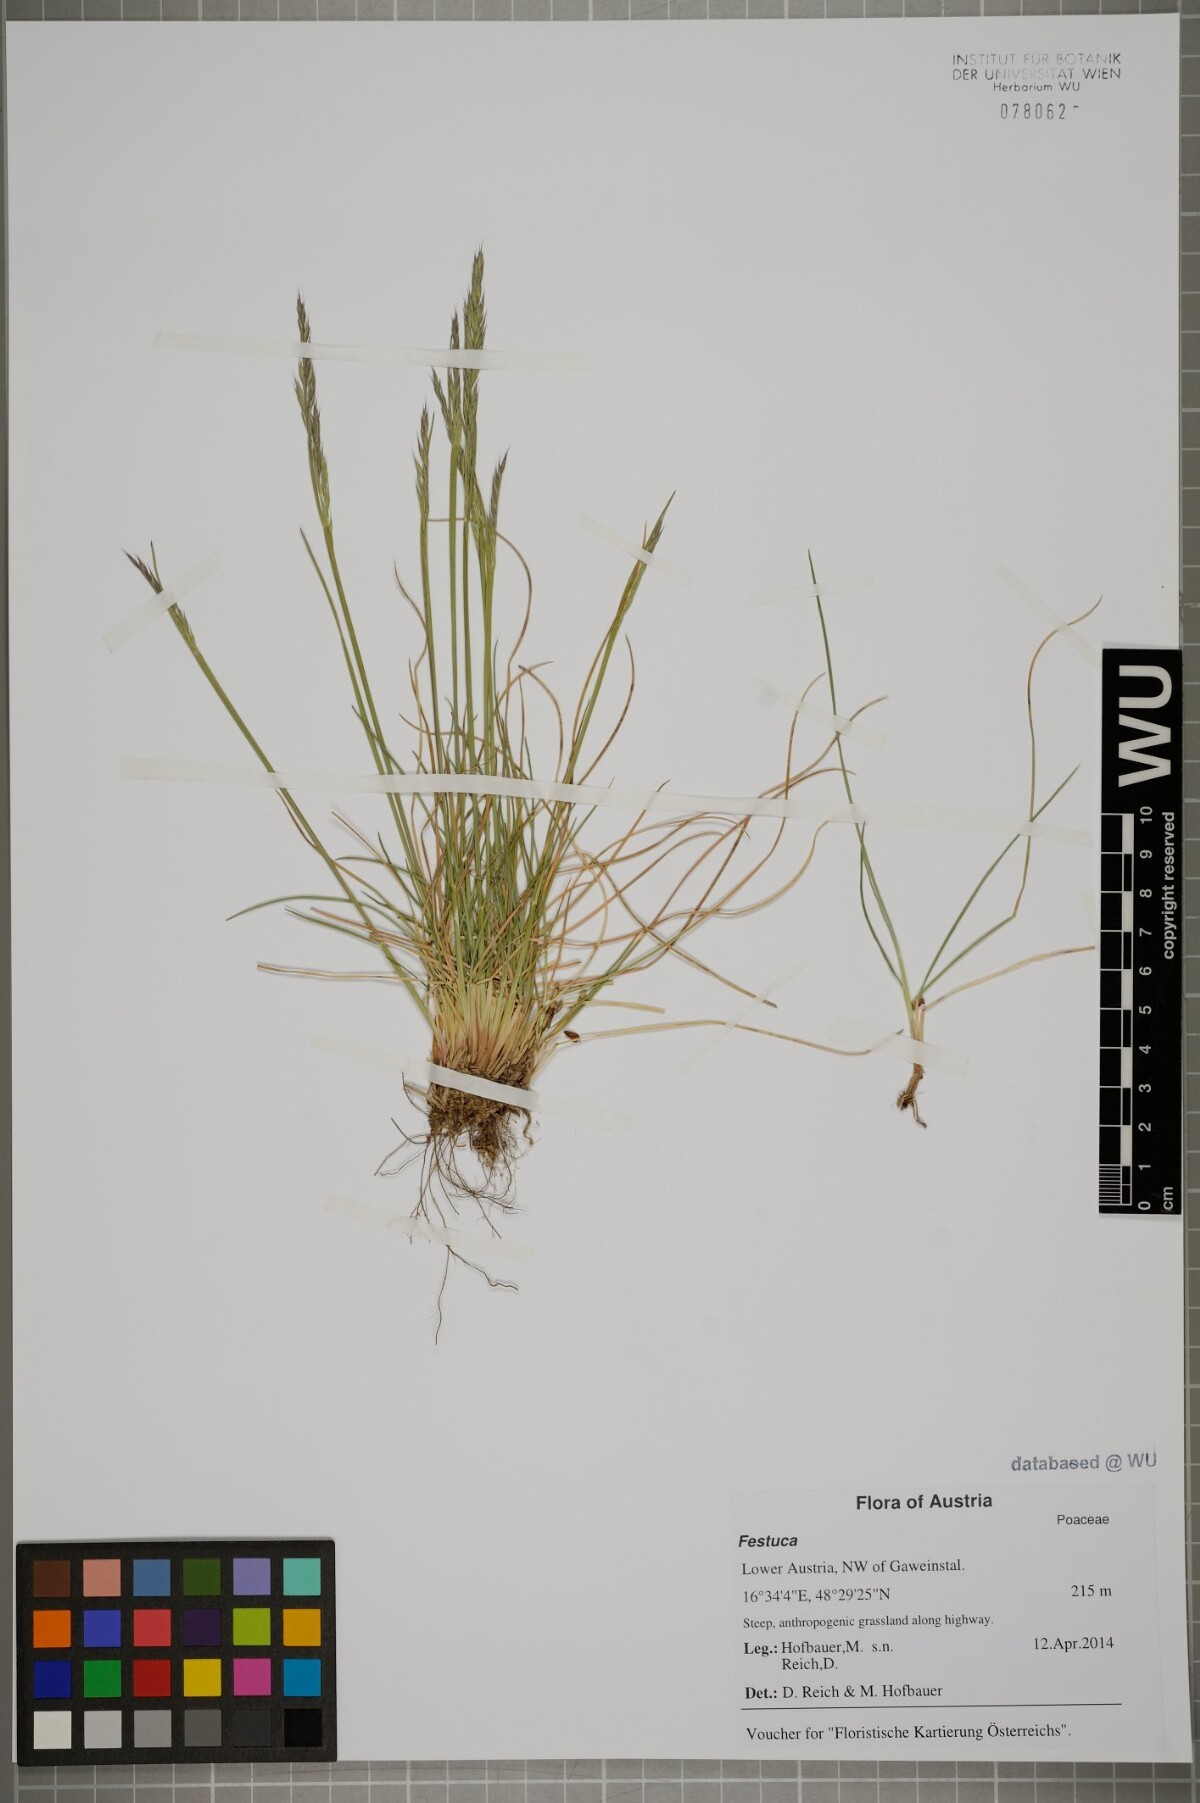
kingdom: Plantae
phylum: Tracheophyta
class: Liliopsida
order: Poales
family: Poaceae
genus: Festuca
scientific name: Festuca
